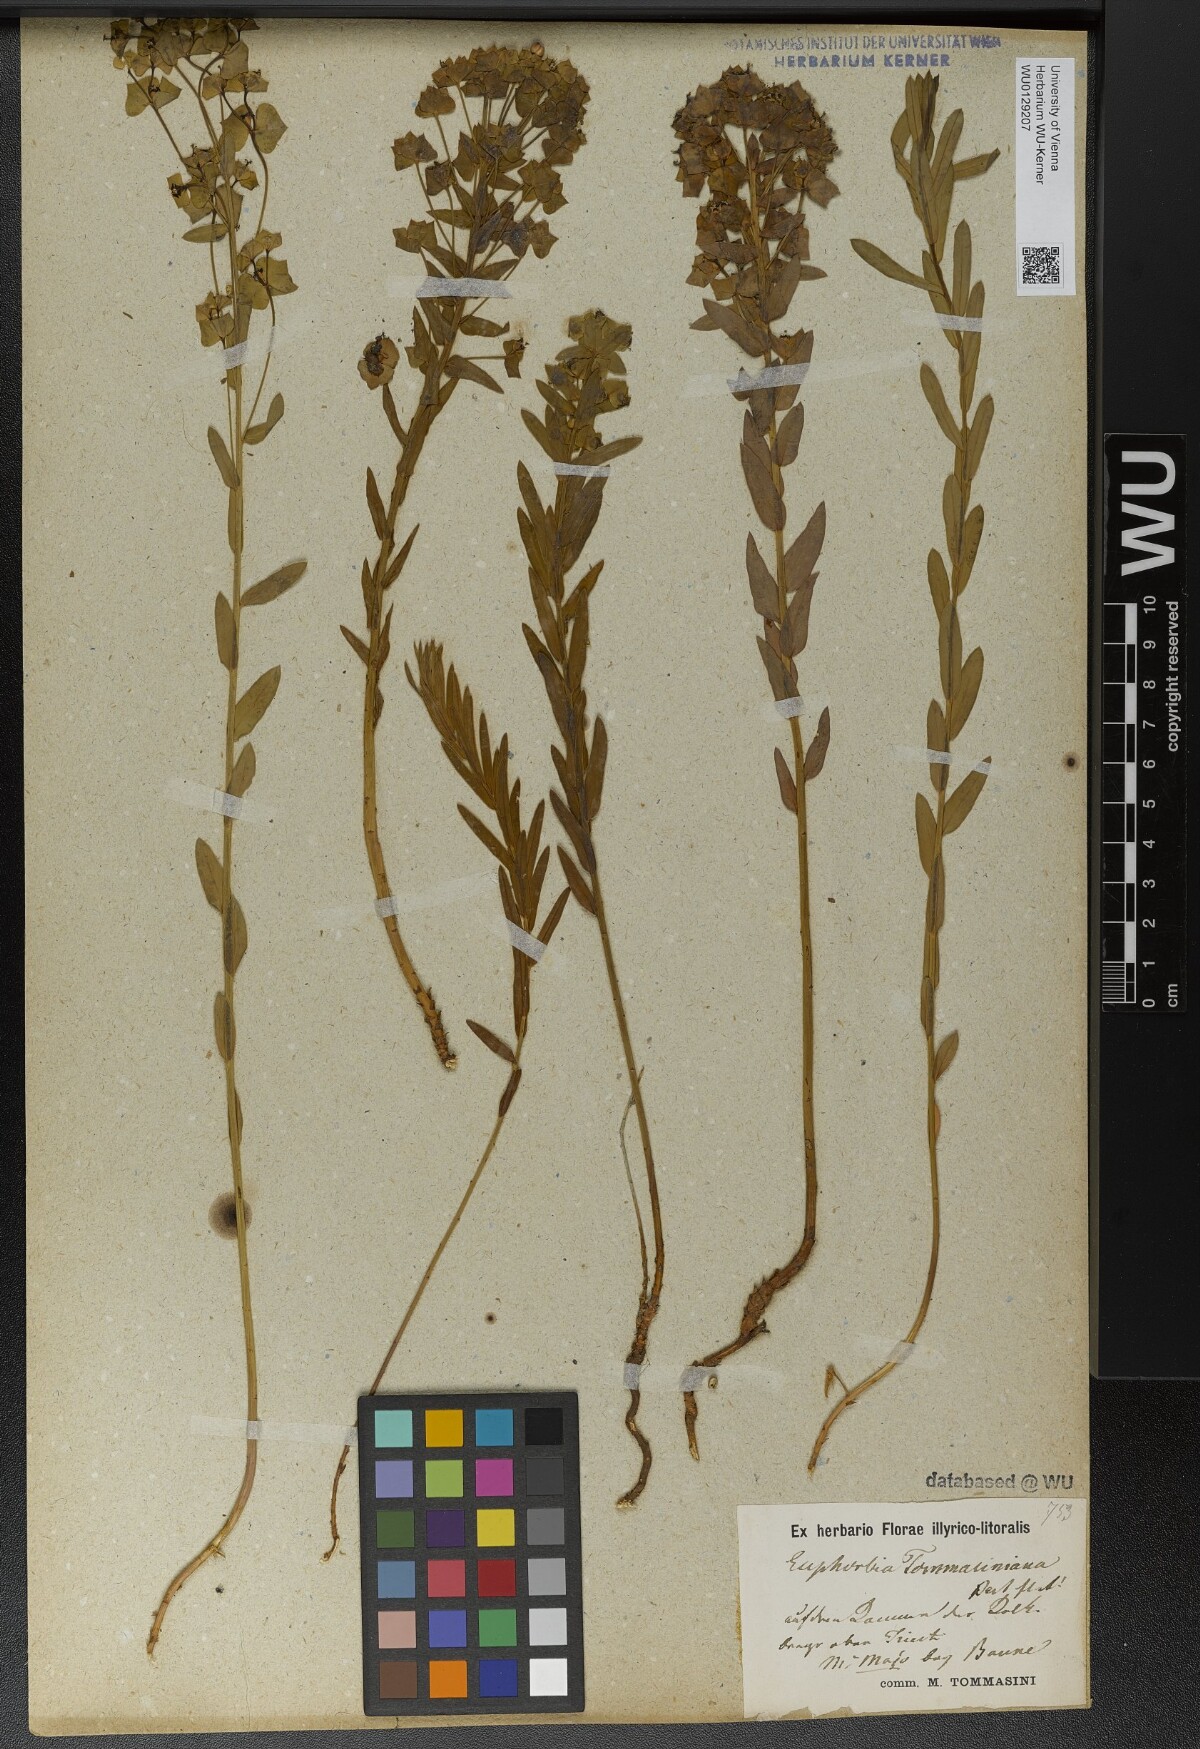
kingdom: Plantae
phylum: Tracheophyta
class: Magnoliopsida
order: Malpighiales
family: Euphorbiaceae
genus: Euphorbia
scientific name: Euphorbia tommasiniana
